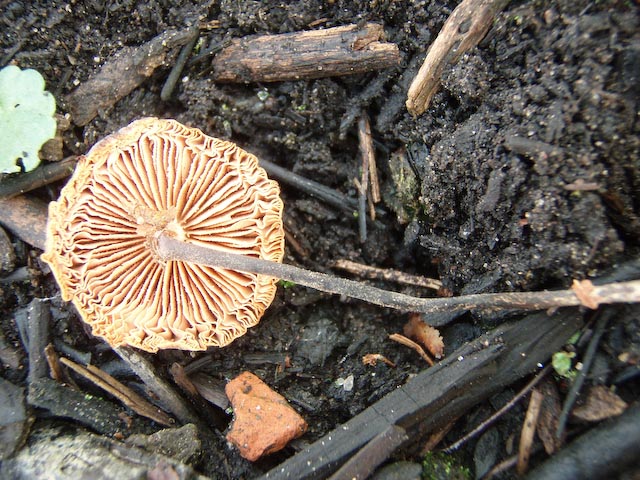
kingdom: Fungi
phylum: Basidiomycota
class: Agaricomycetes
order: Agaricales
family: Macrocystidiaceae
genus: Macrocystidia
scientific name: Macrocystidia cucumis
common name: agurkehat
